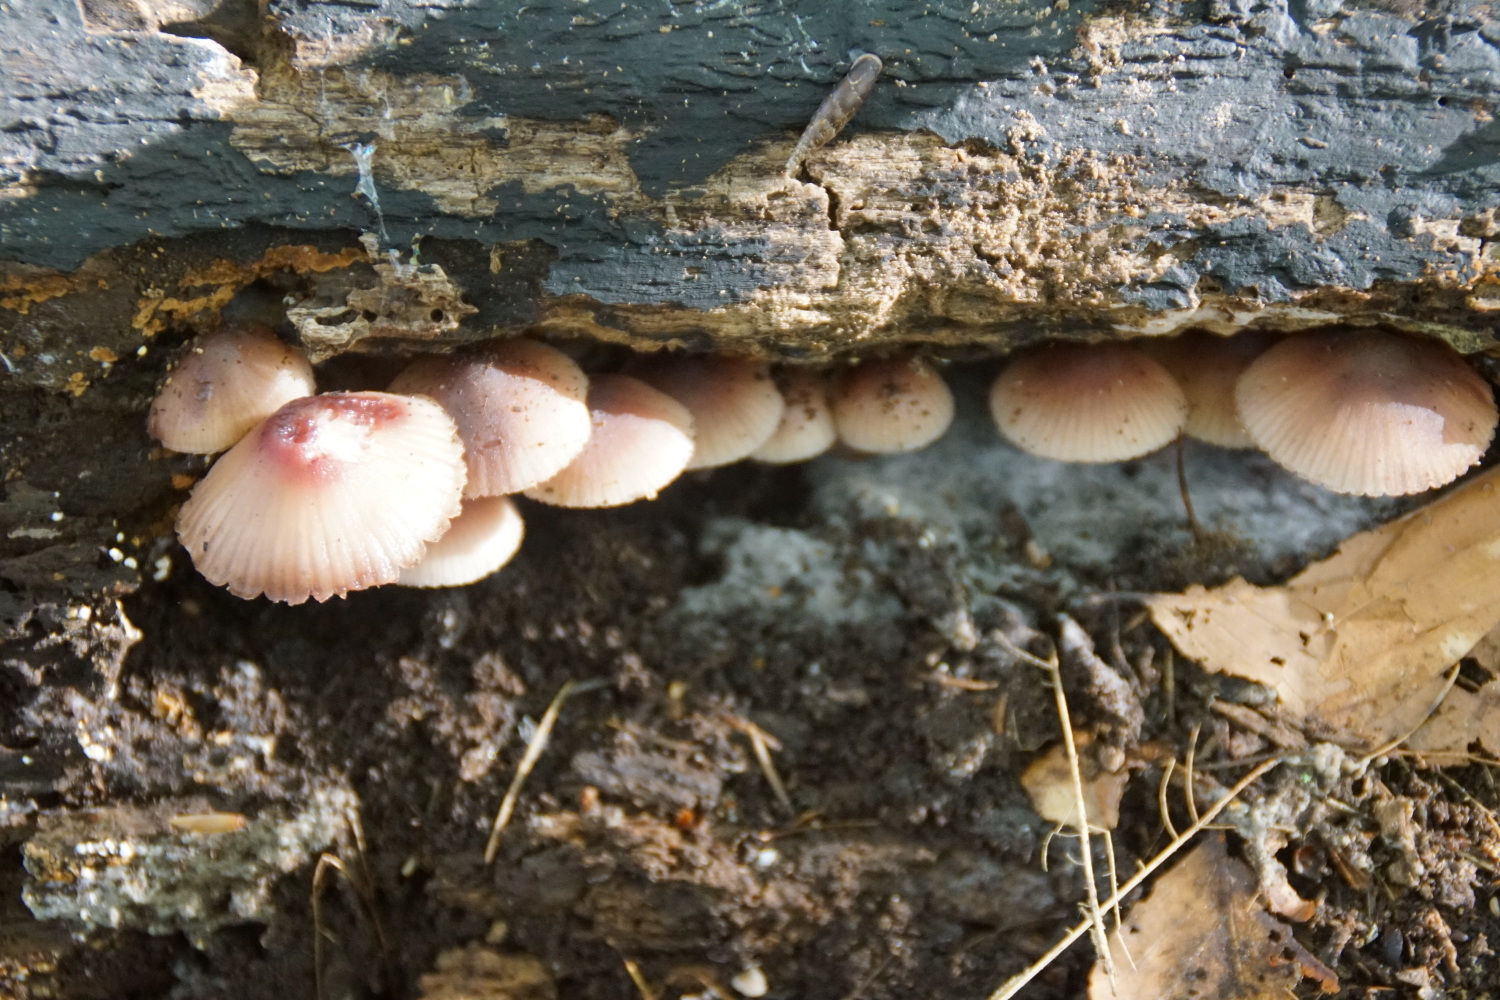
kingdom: Fungi
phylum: Basidiomycota
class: Agaricomycetes
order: Agaricales
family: Mycenaceae
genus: Mycena
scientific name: Mycena haematopus
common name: blødende huesvamp
